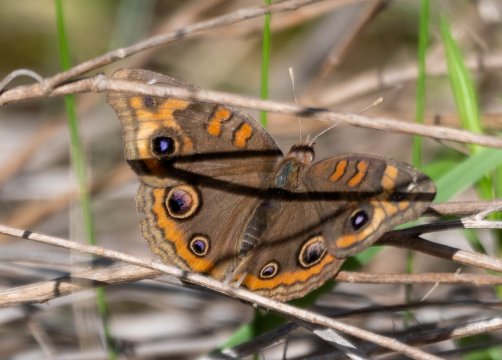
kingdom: Animalia
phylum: Arthropoda
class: Insecta
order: Lepidoptera
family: Nymphalidae
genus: Junonia
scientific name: Junonia lavinia
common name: Tropical Buckeye
